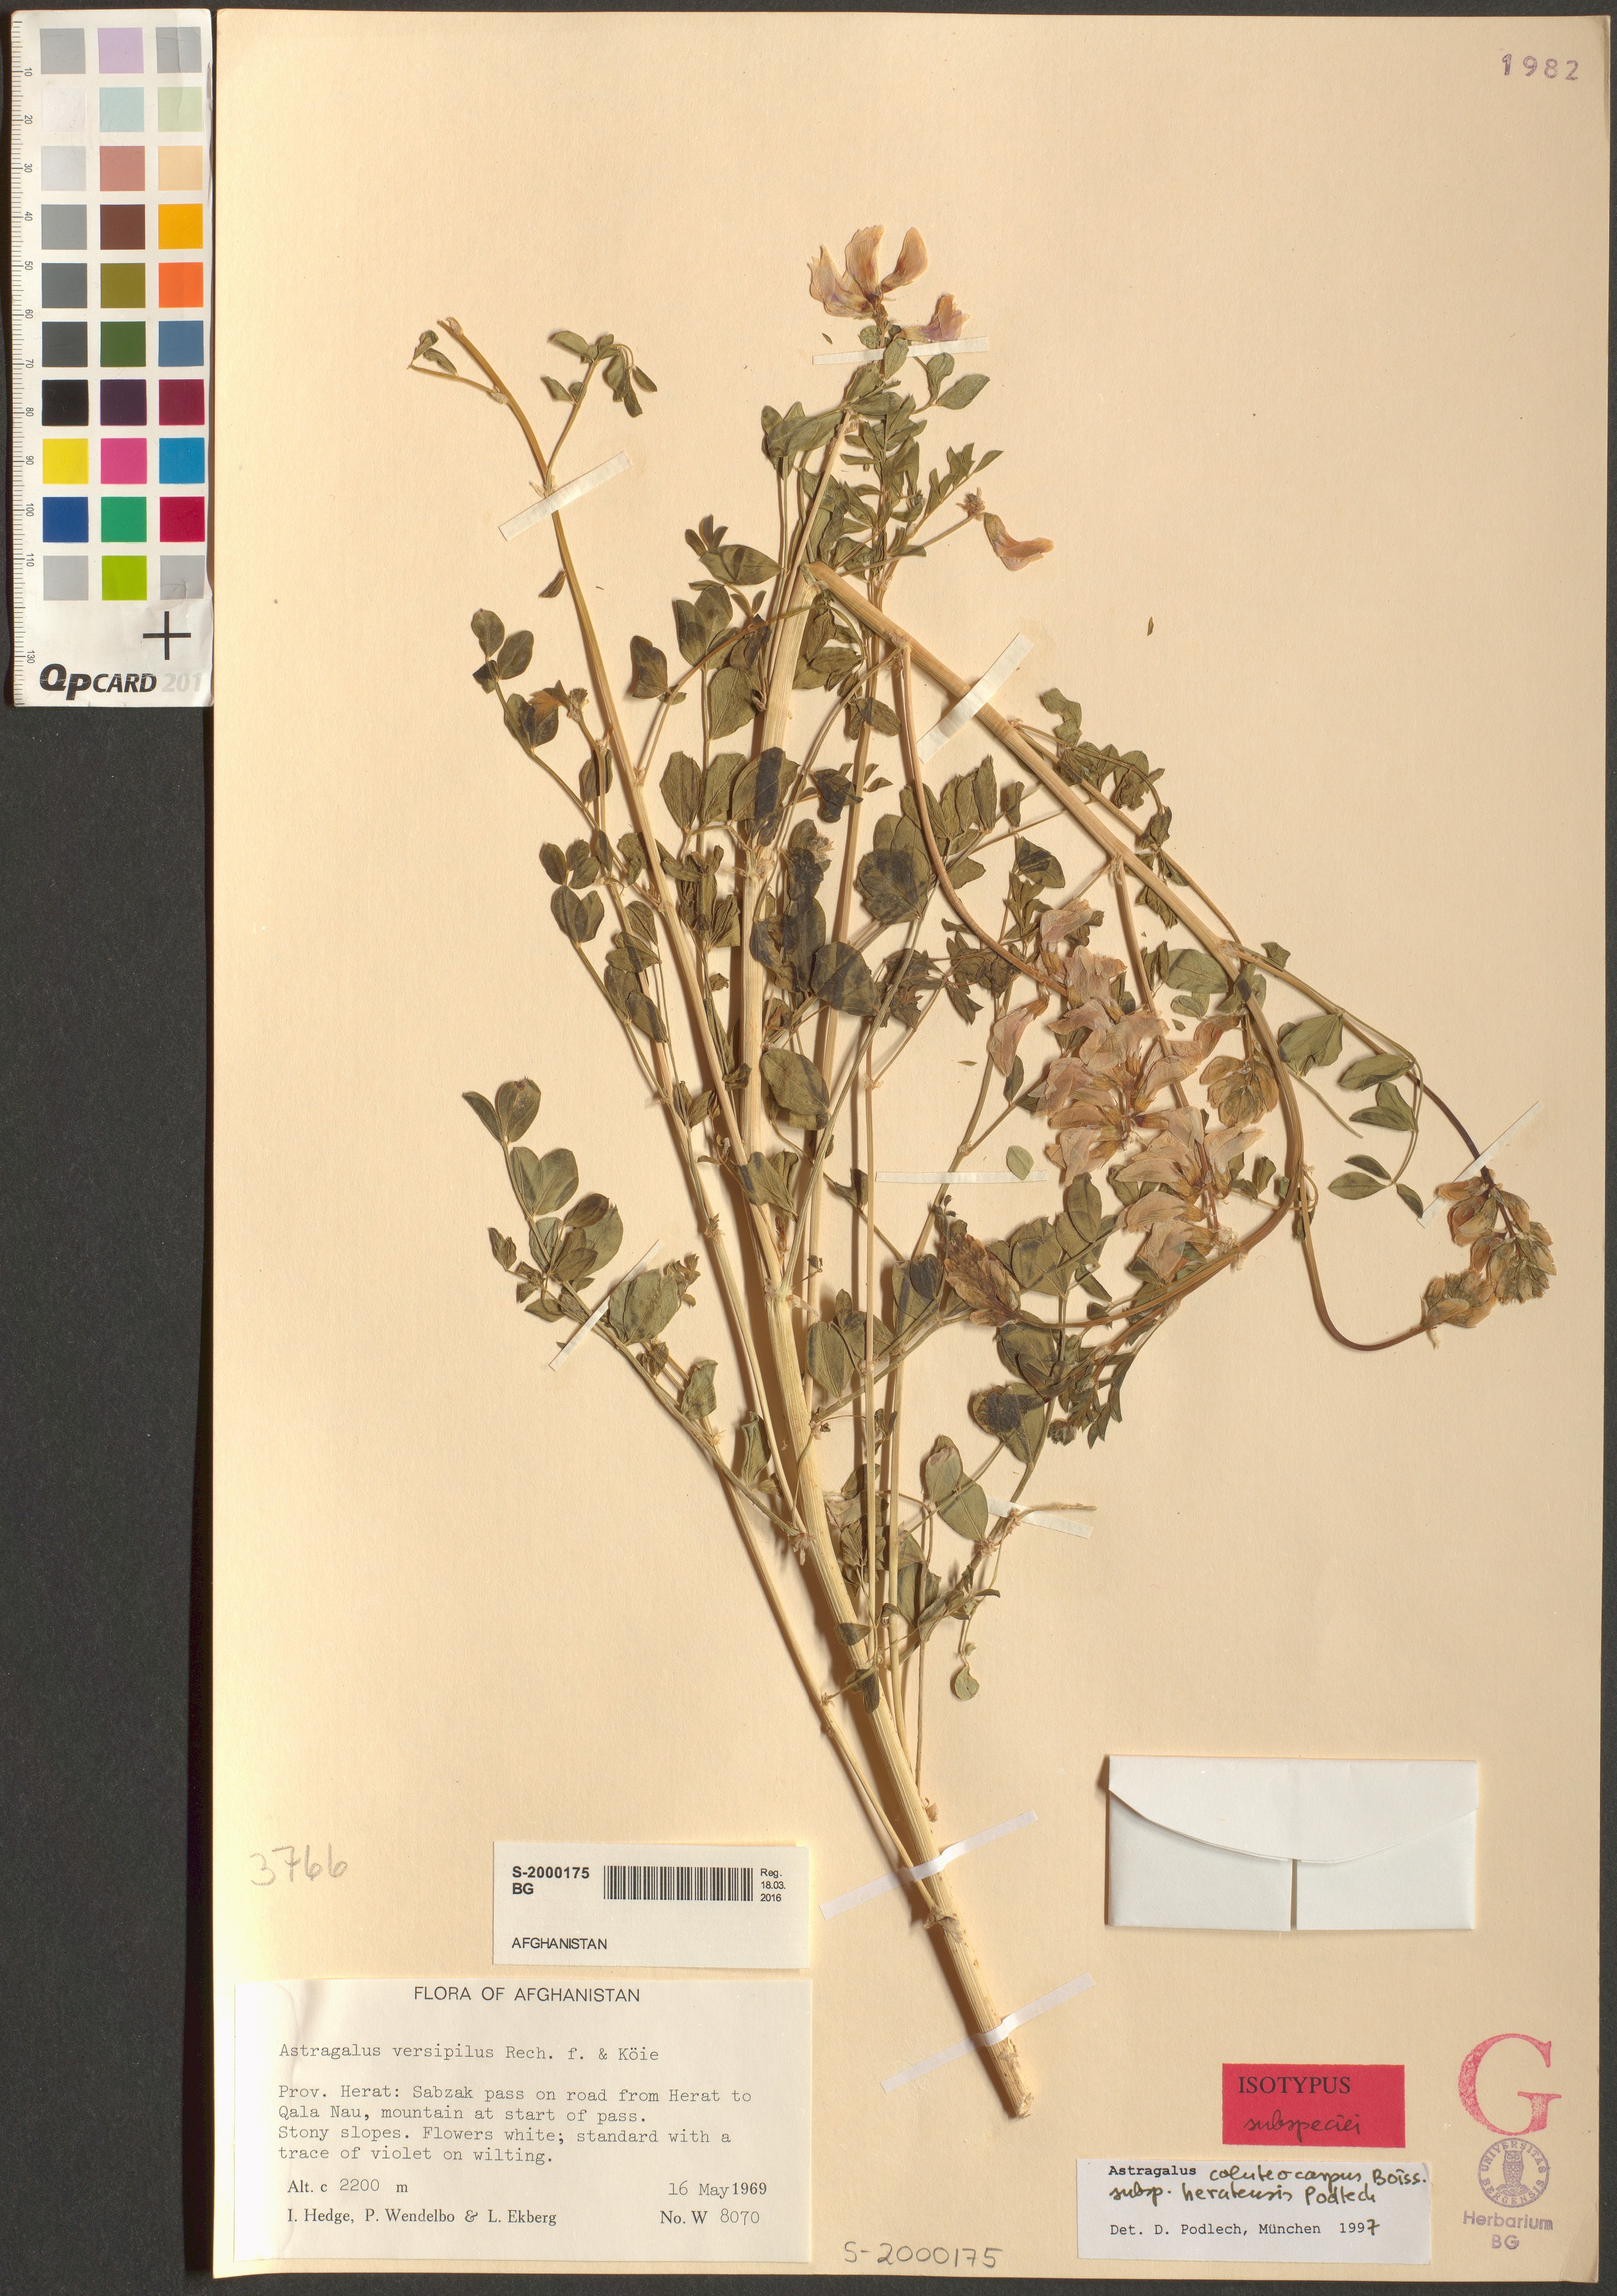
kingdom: Plantae
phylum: Tracheophyta
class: Magnoliopsida
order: Fabales
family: Fabaceae
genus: Astragalus
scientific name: Astragalus coluteocarpus
